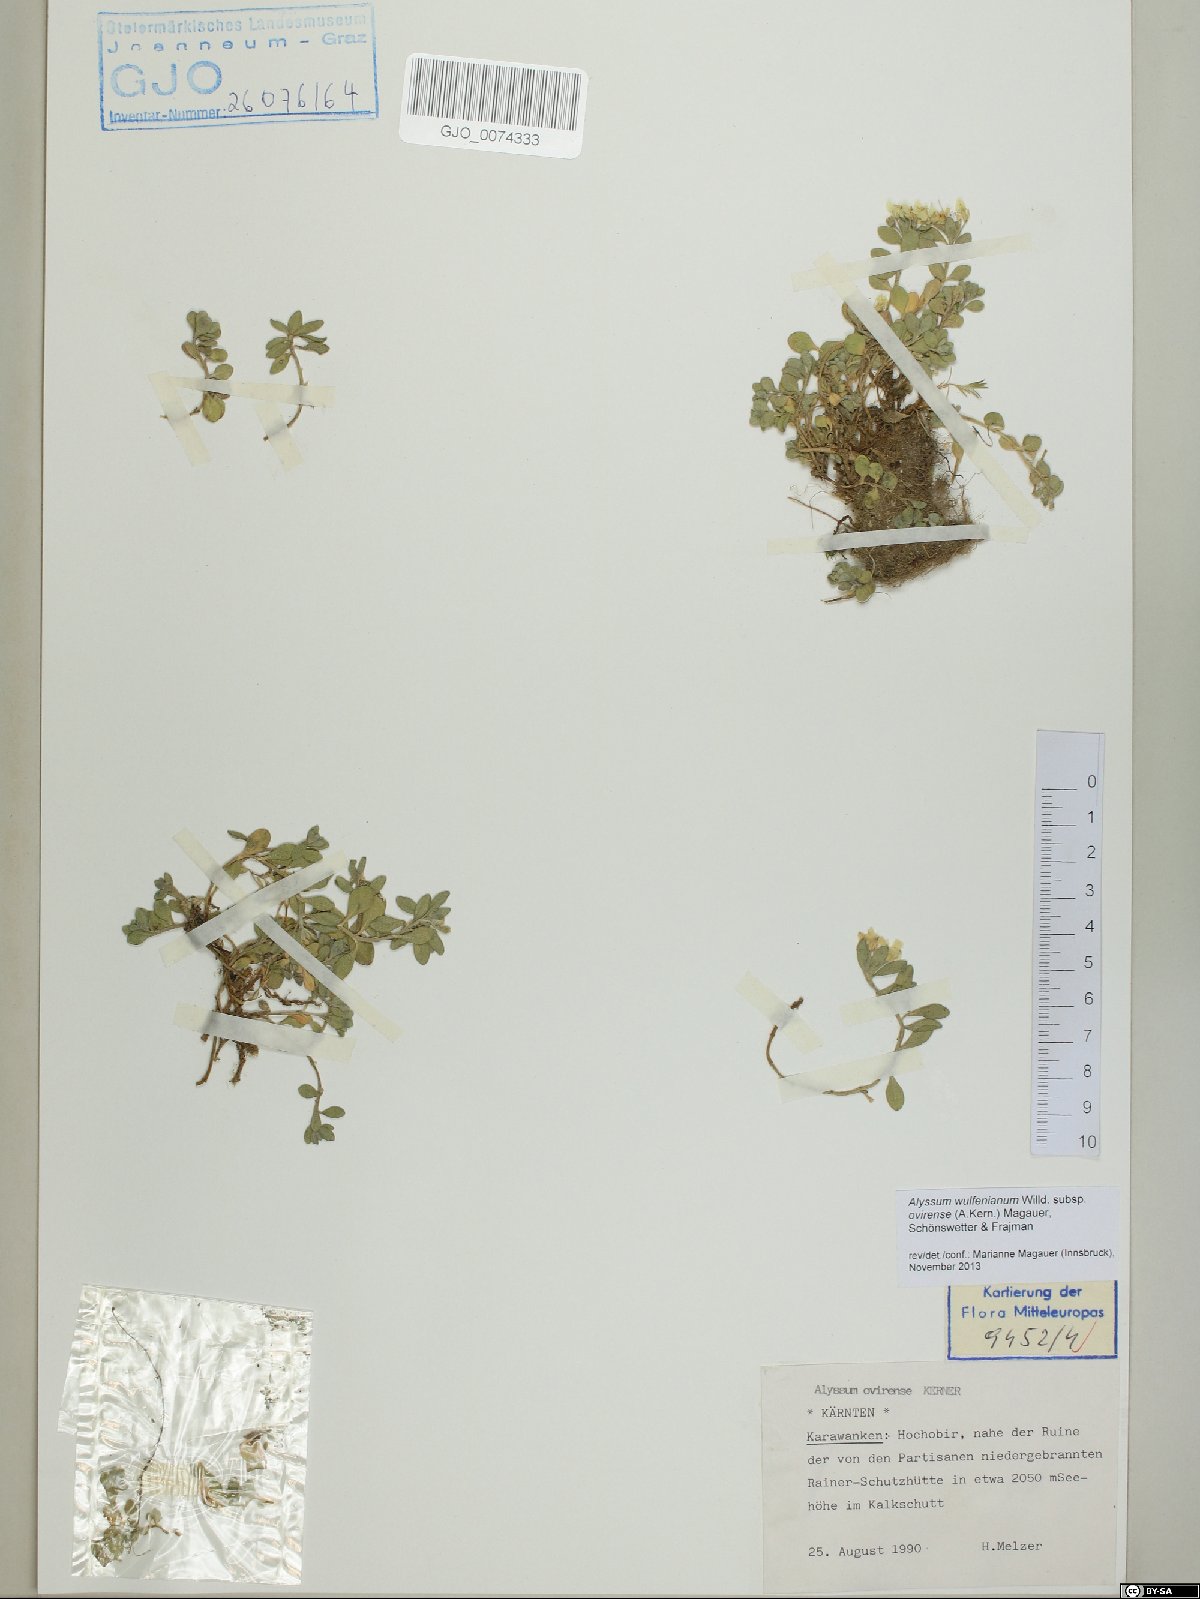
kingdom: Plantae
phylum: Tracheophyta
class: Magnoliopsida
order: Brassicales
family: Brassicaceae
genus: Alyssum
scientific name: Alyssum wulfenianum
